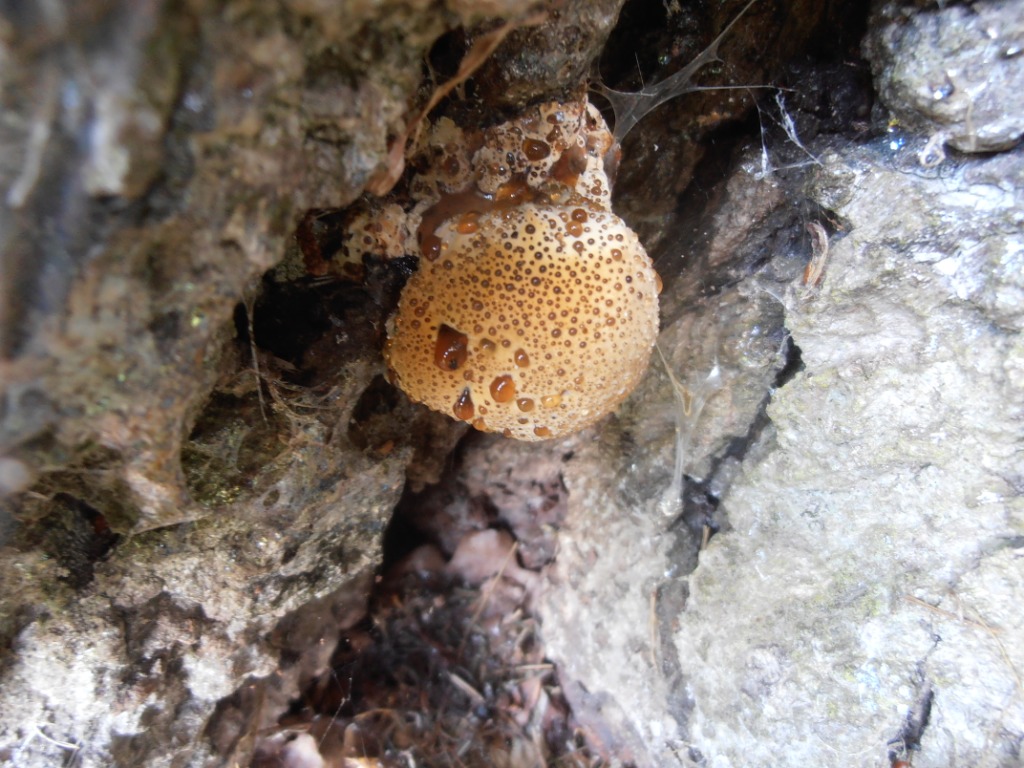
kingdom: Fungi
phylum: Basidiomycota
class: Agaricomycetes
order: Hymenochaetales
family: Hymenochaetaceae
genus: Pseudoinonotus
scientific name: Pseudoinonotus dryadeus
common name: ege-spejlporesvamp
